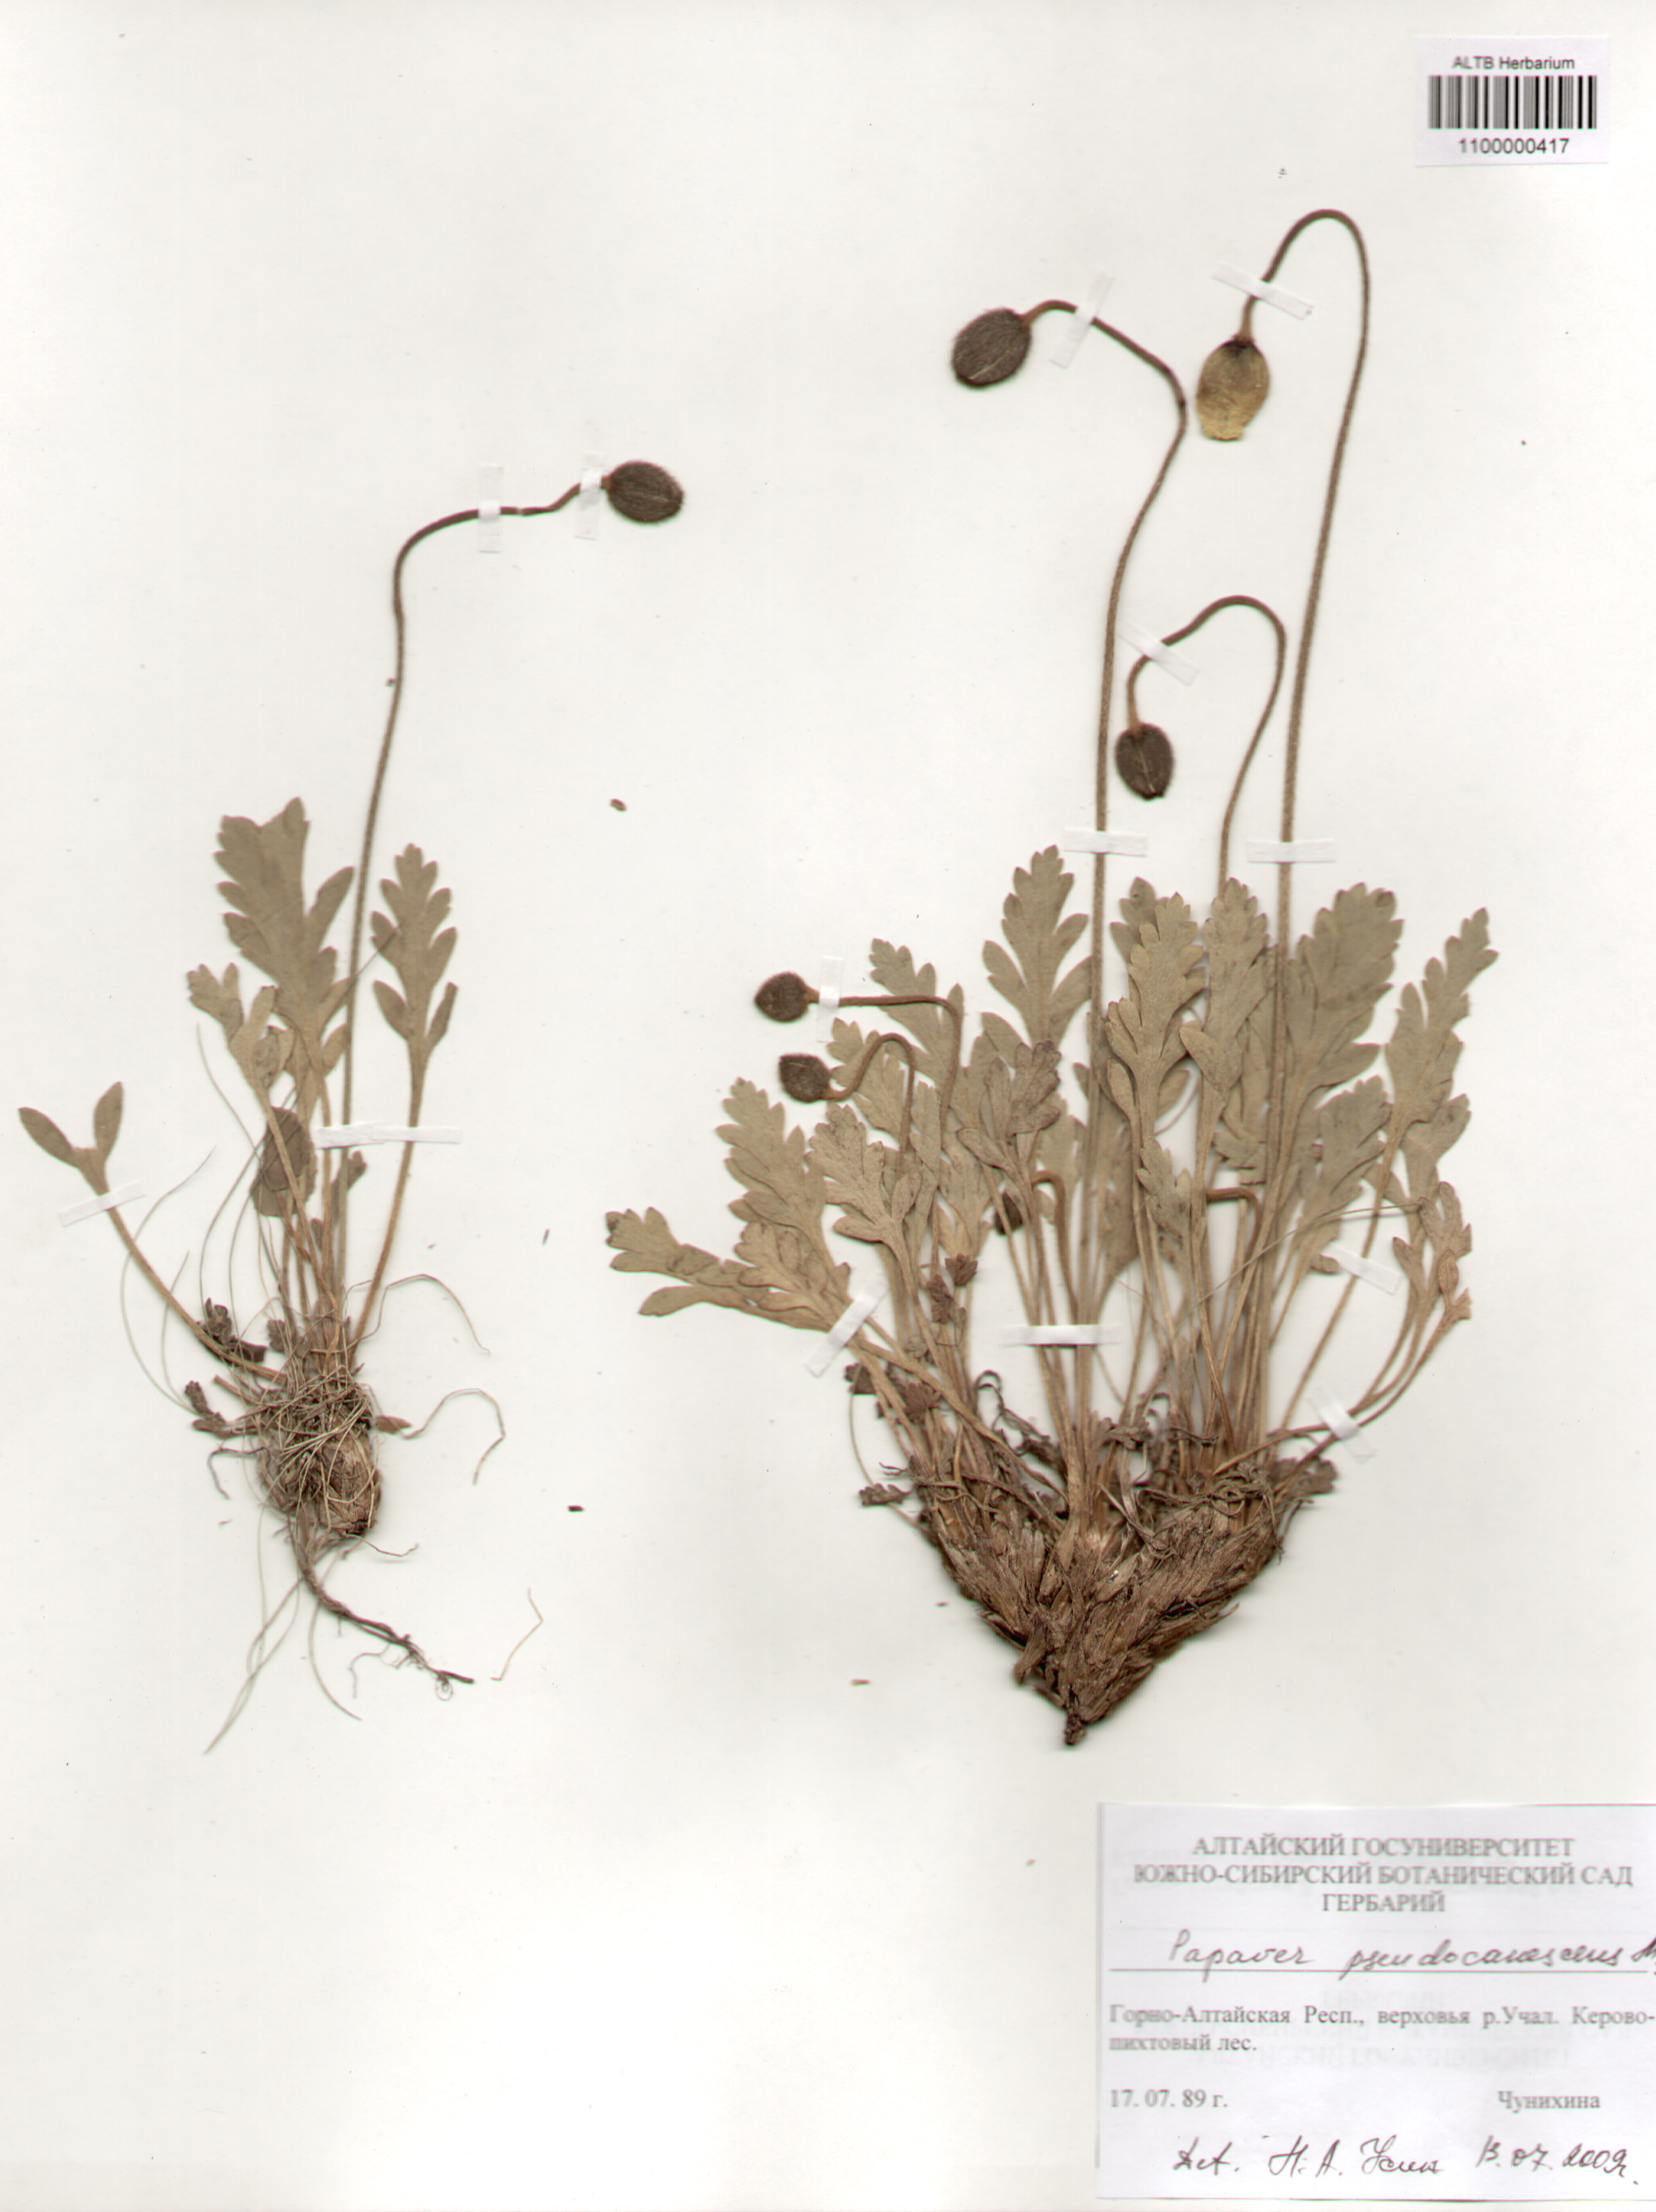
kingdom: Plantae
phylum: Tracheophyta
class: Magnoliopsida
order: Ranunculales
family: Papaveraceae
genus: Papaver
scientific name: Papaver canescens
